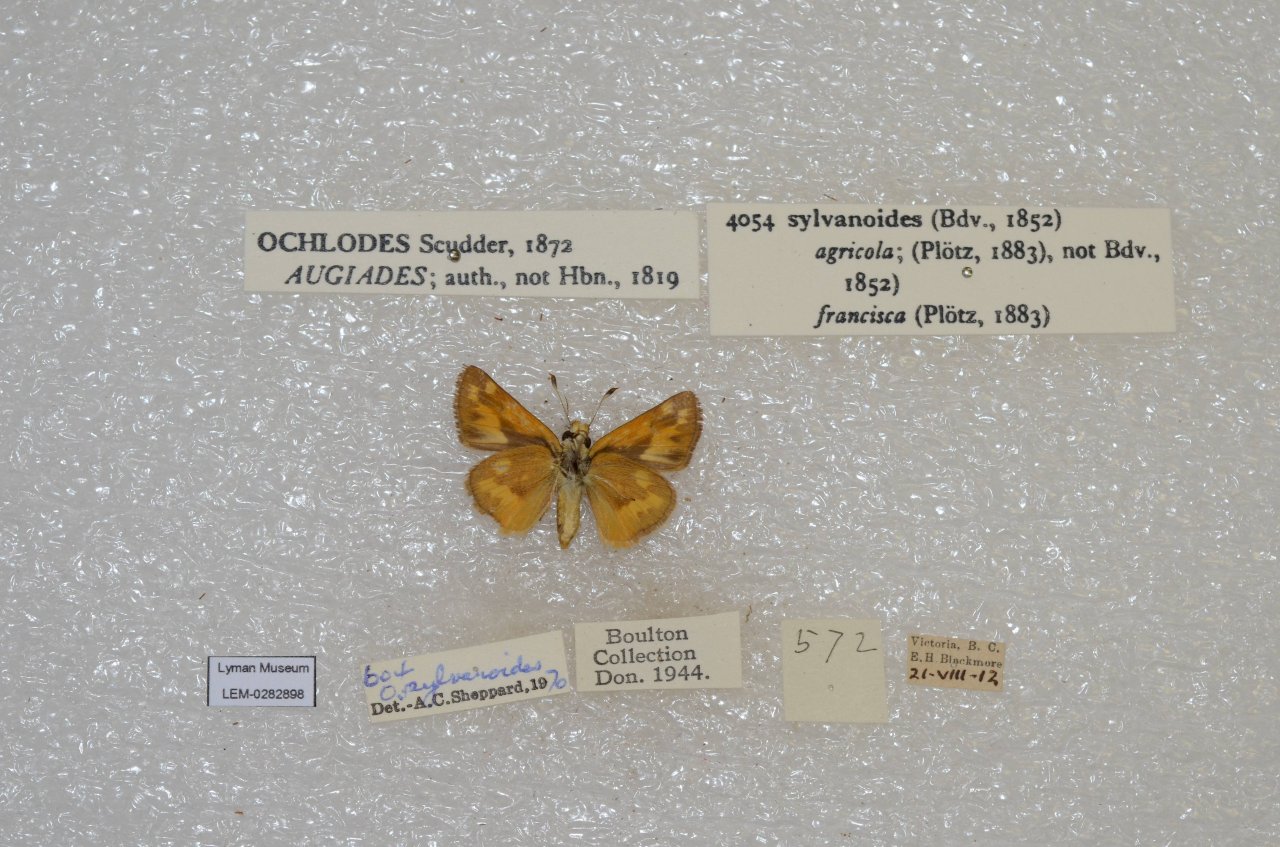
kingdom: Animalia
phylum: Arthropoda
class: Insecta
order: Lepidoptera
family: Hesperiidae
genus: Ochlodes
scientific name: Ochlodes sylvanoides
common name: Woodland Skipper
